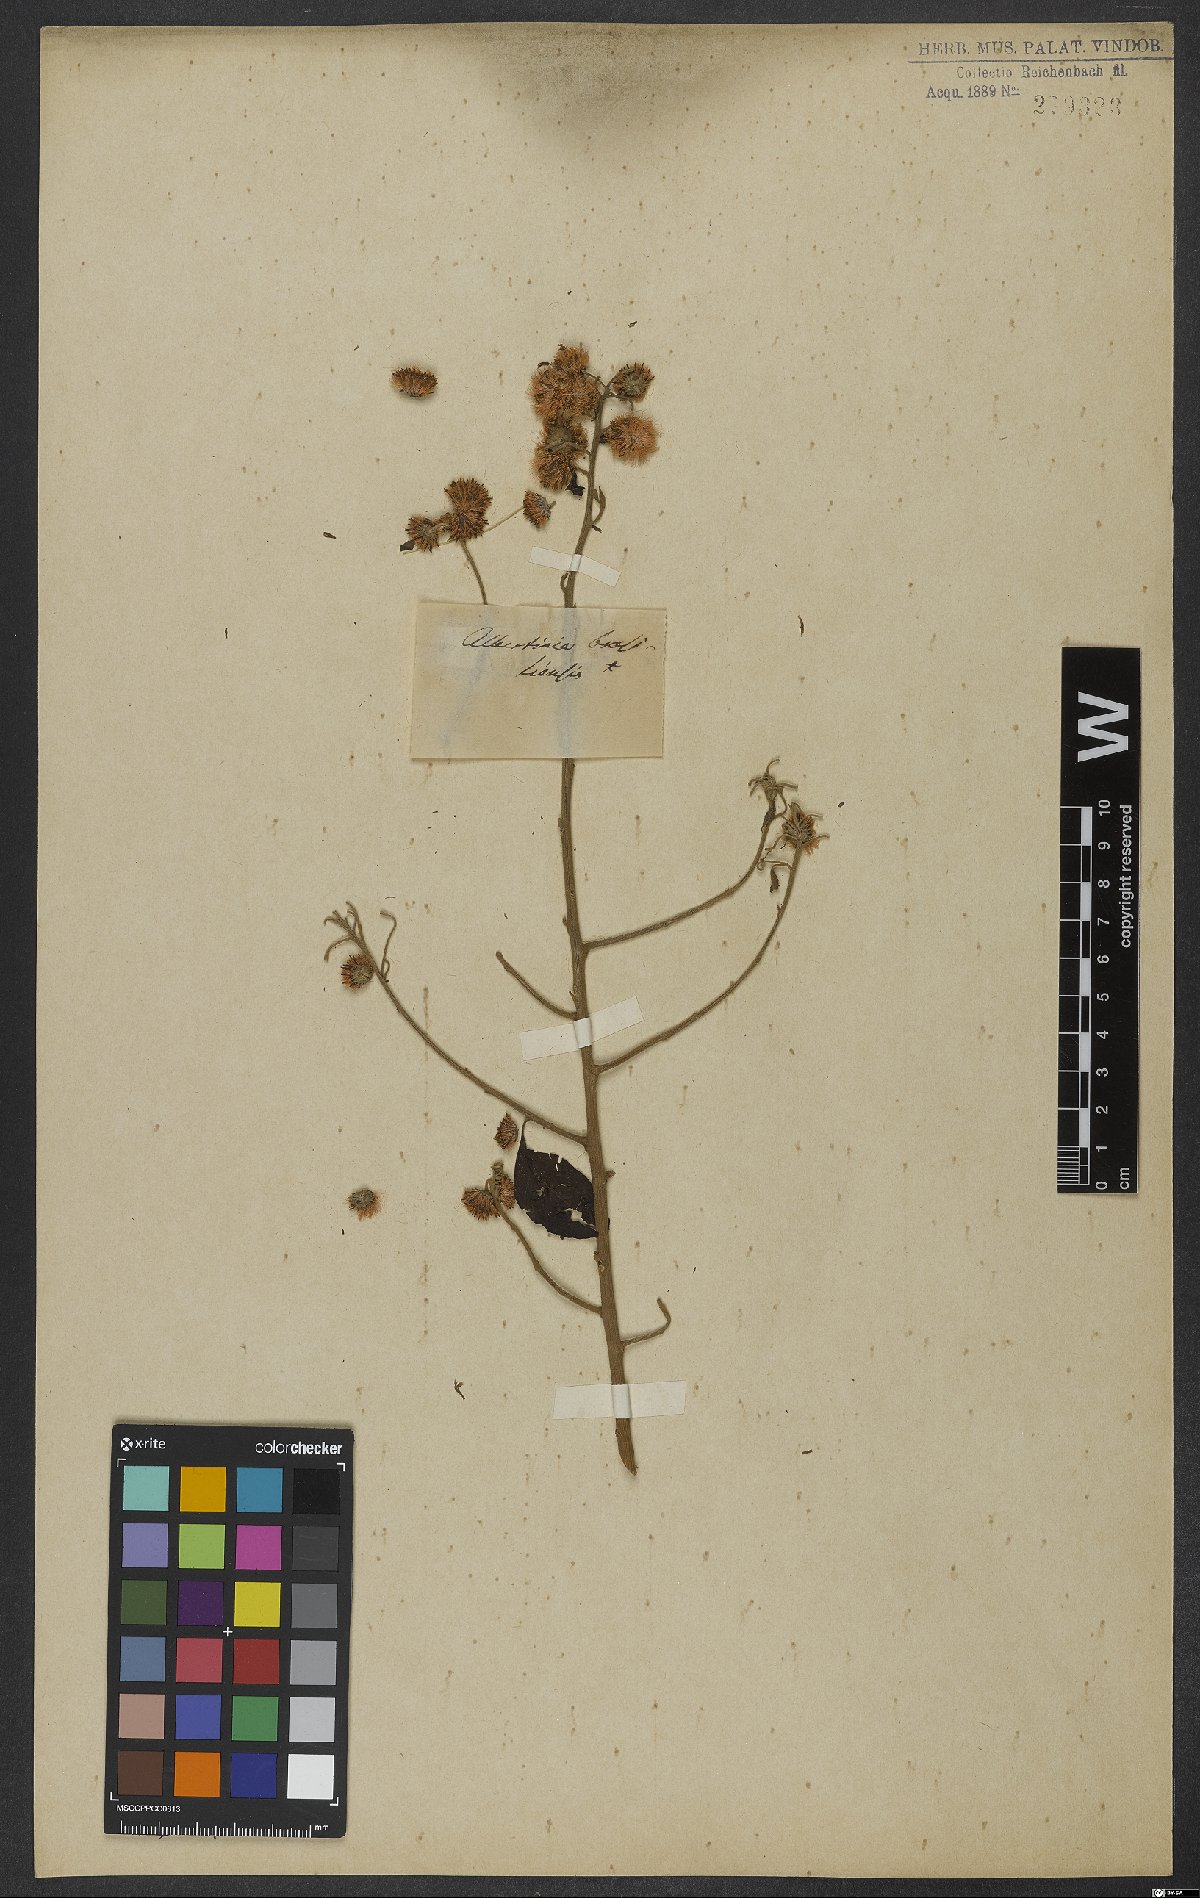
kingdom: Plantae
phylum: Tracheophyta
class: Magnoliopsida
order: Asterales
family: Asteraceae
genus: Albertinia
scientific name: Albertinia brasiliensis
